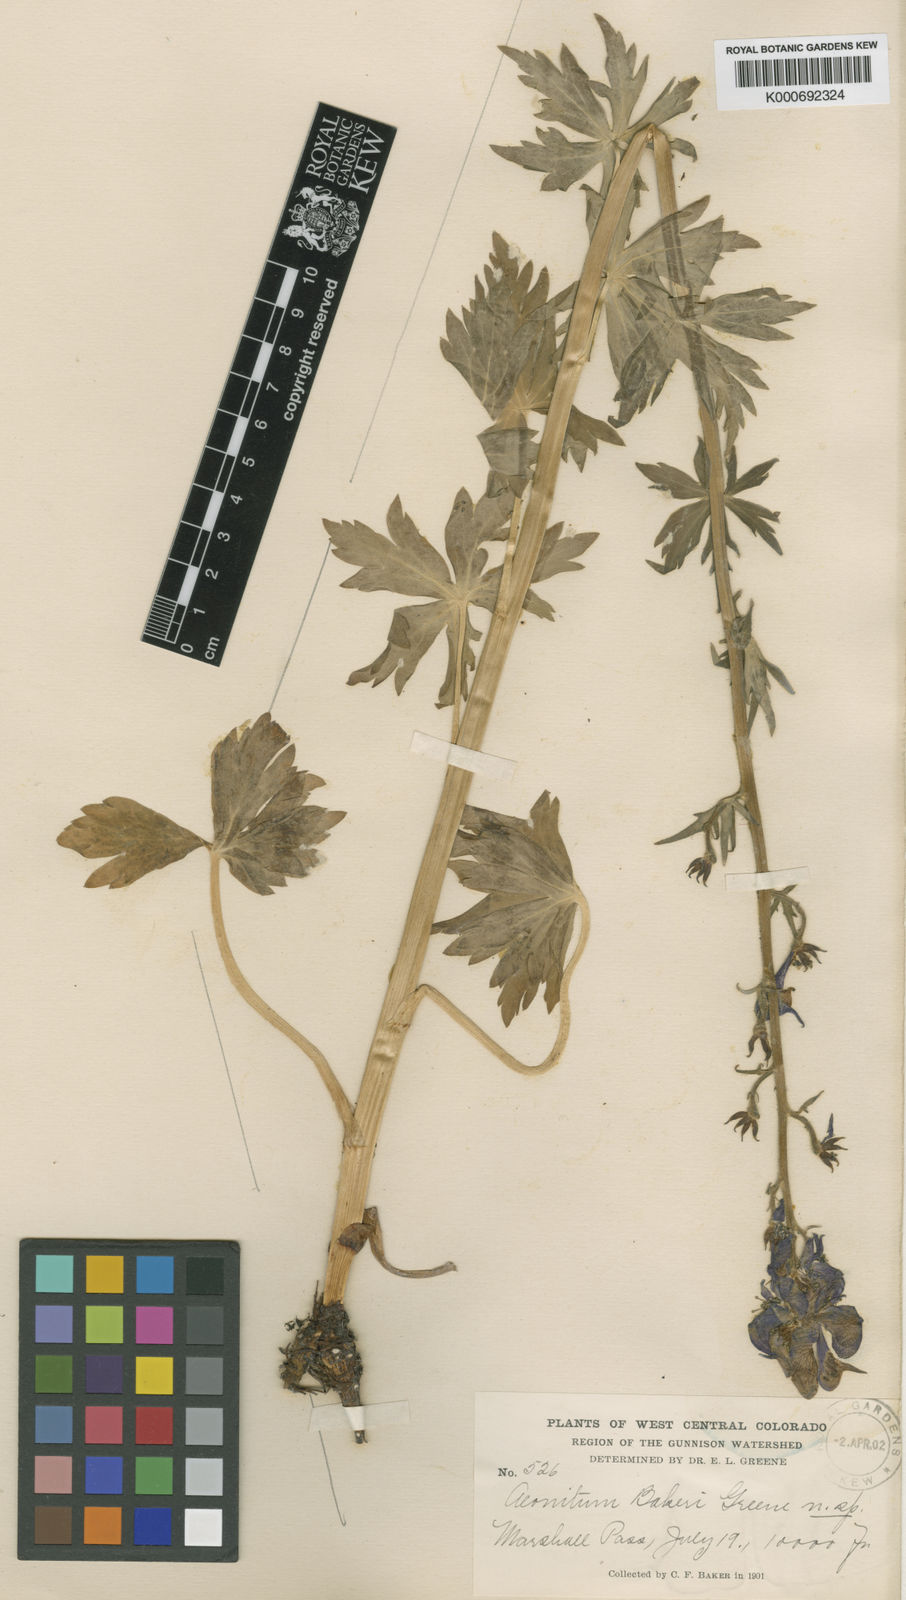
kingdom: Plantae
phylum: Tracheophyta
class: Magnoliopsida
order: Ranunculales
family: Ranunculaceae
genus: Aconitum
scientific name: Aconitum columbianum
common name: Columbia aconite
